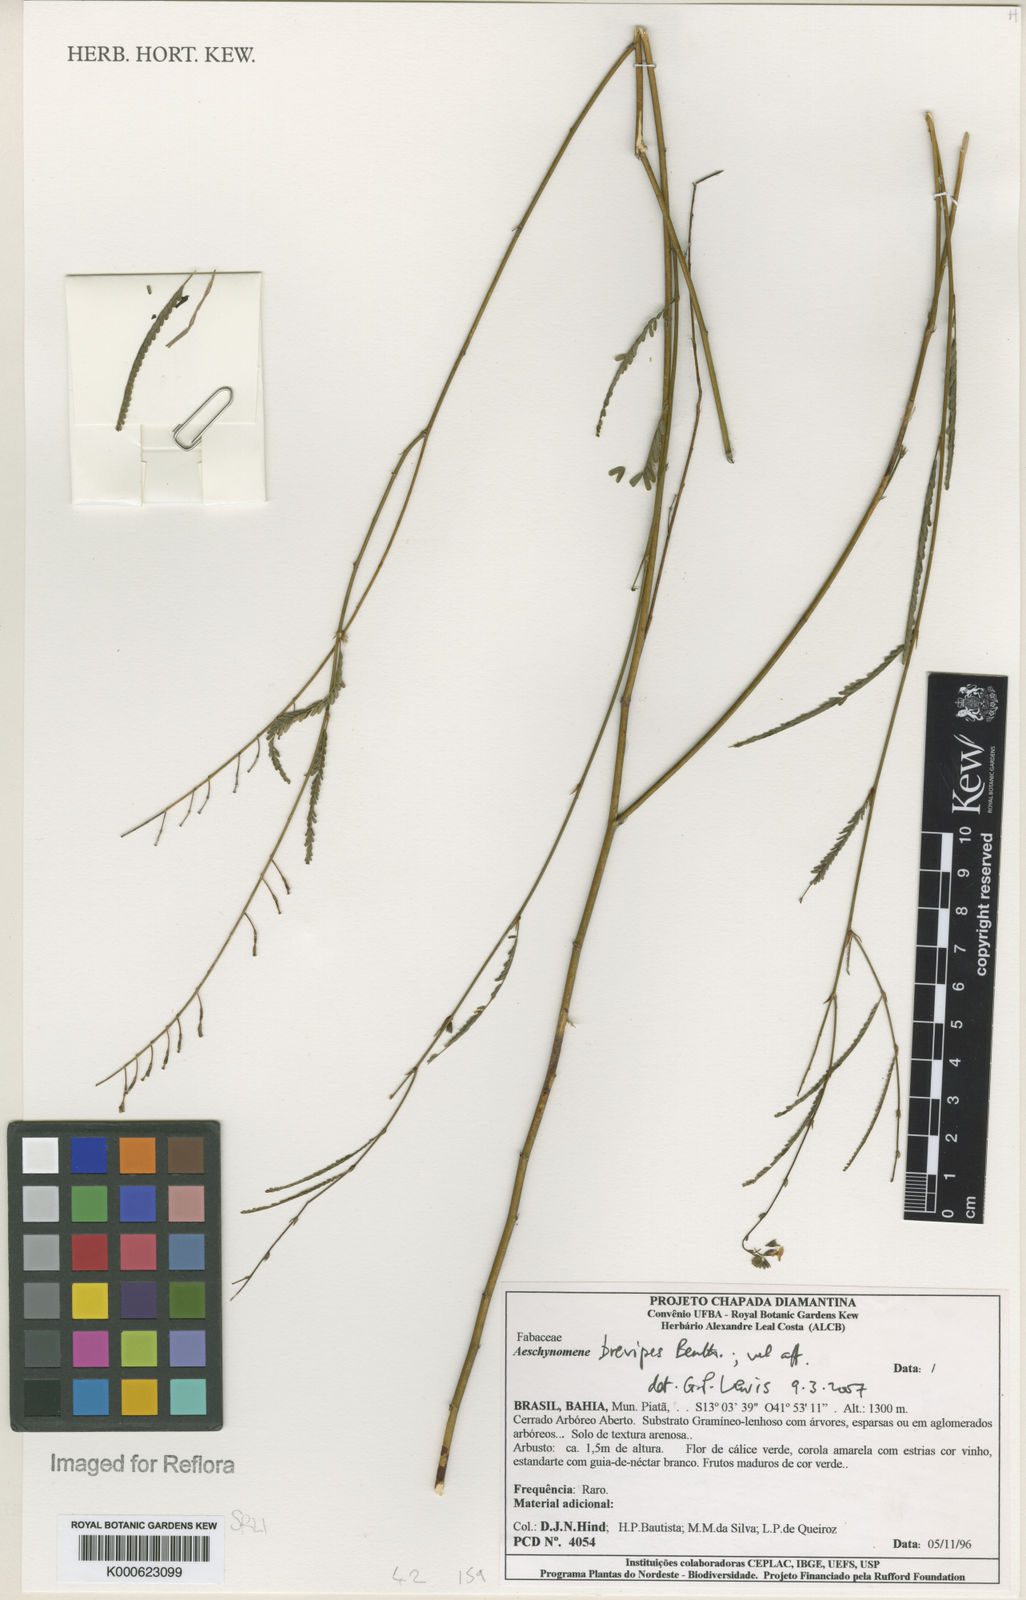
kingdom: Plantae
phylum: Tracheophyta
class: Magnoliopsida
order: Fabales
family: Fabaceae
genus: Ctenodon
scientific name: Ctenodon brevipes
